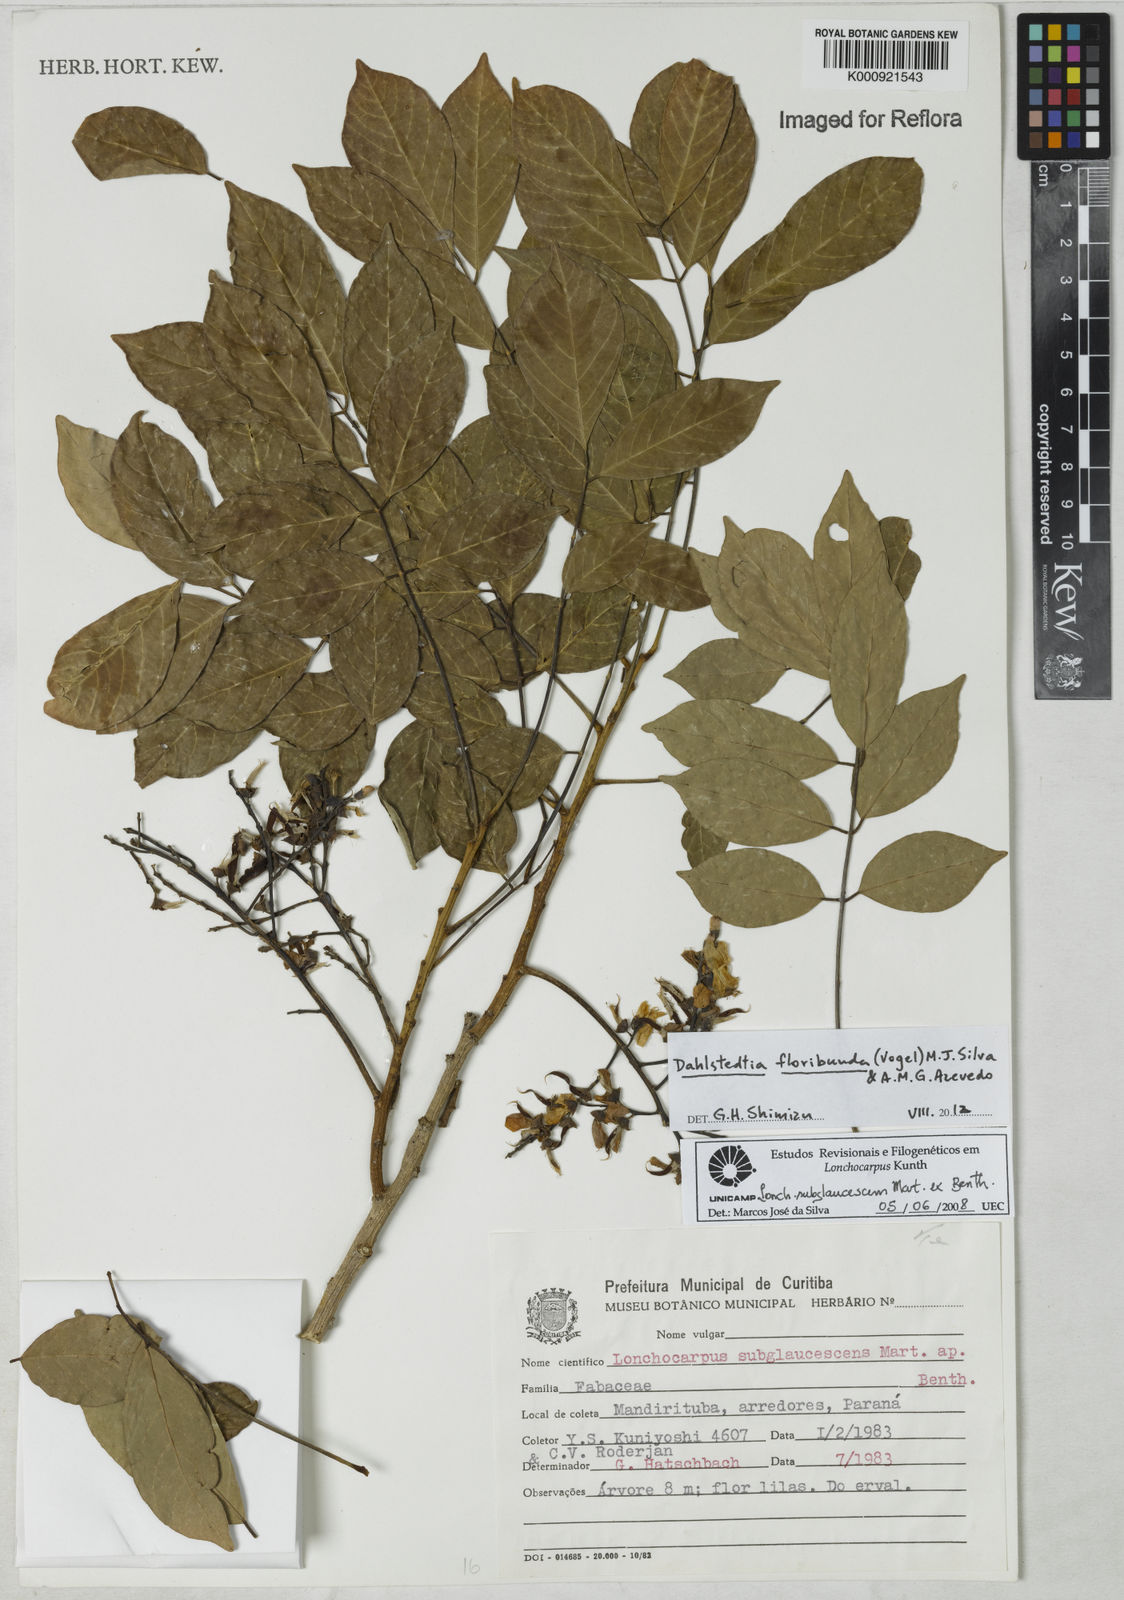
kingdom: Plantae
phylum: Tracheophyta
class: Magnoliopsida
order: Fabales
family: Fabaceae
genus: Dahlstedtia
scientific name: Dahlstedtia floribunda
